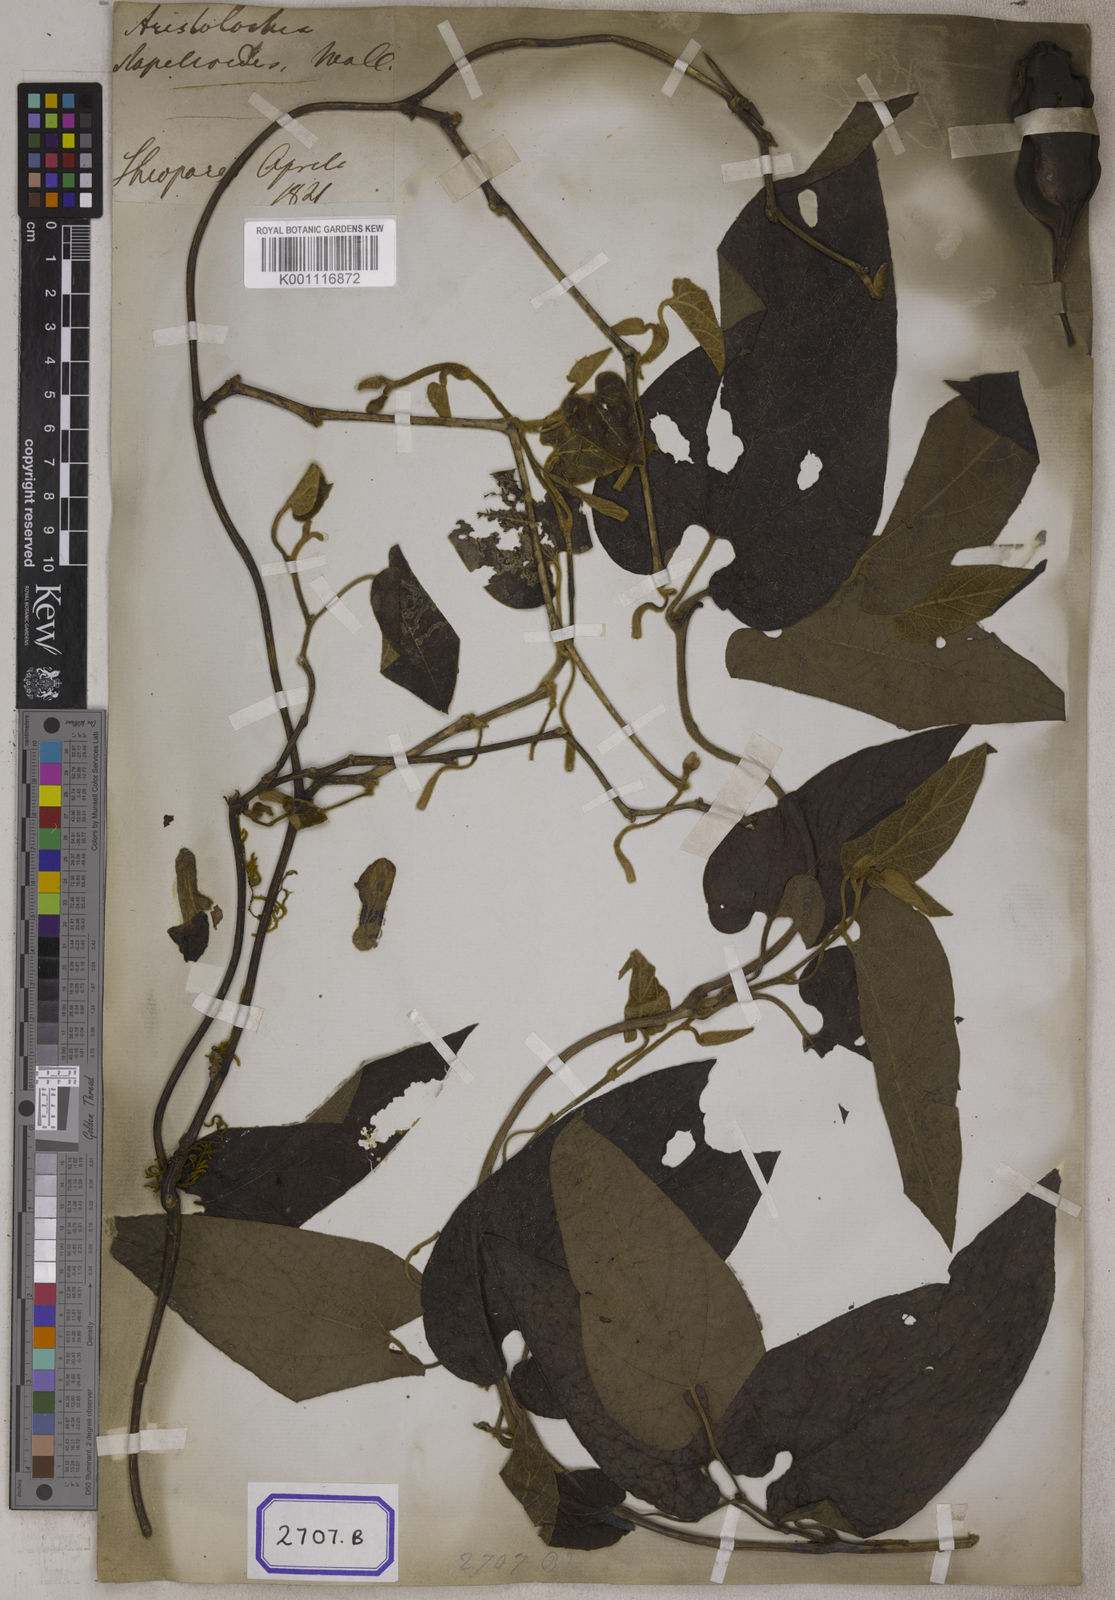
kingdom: Plantae
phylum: Tracheophyta
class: Magnoliopsida
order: Piperales
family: Aristolochiaceae
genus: Isotrema
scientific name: Isotrema saccatum
